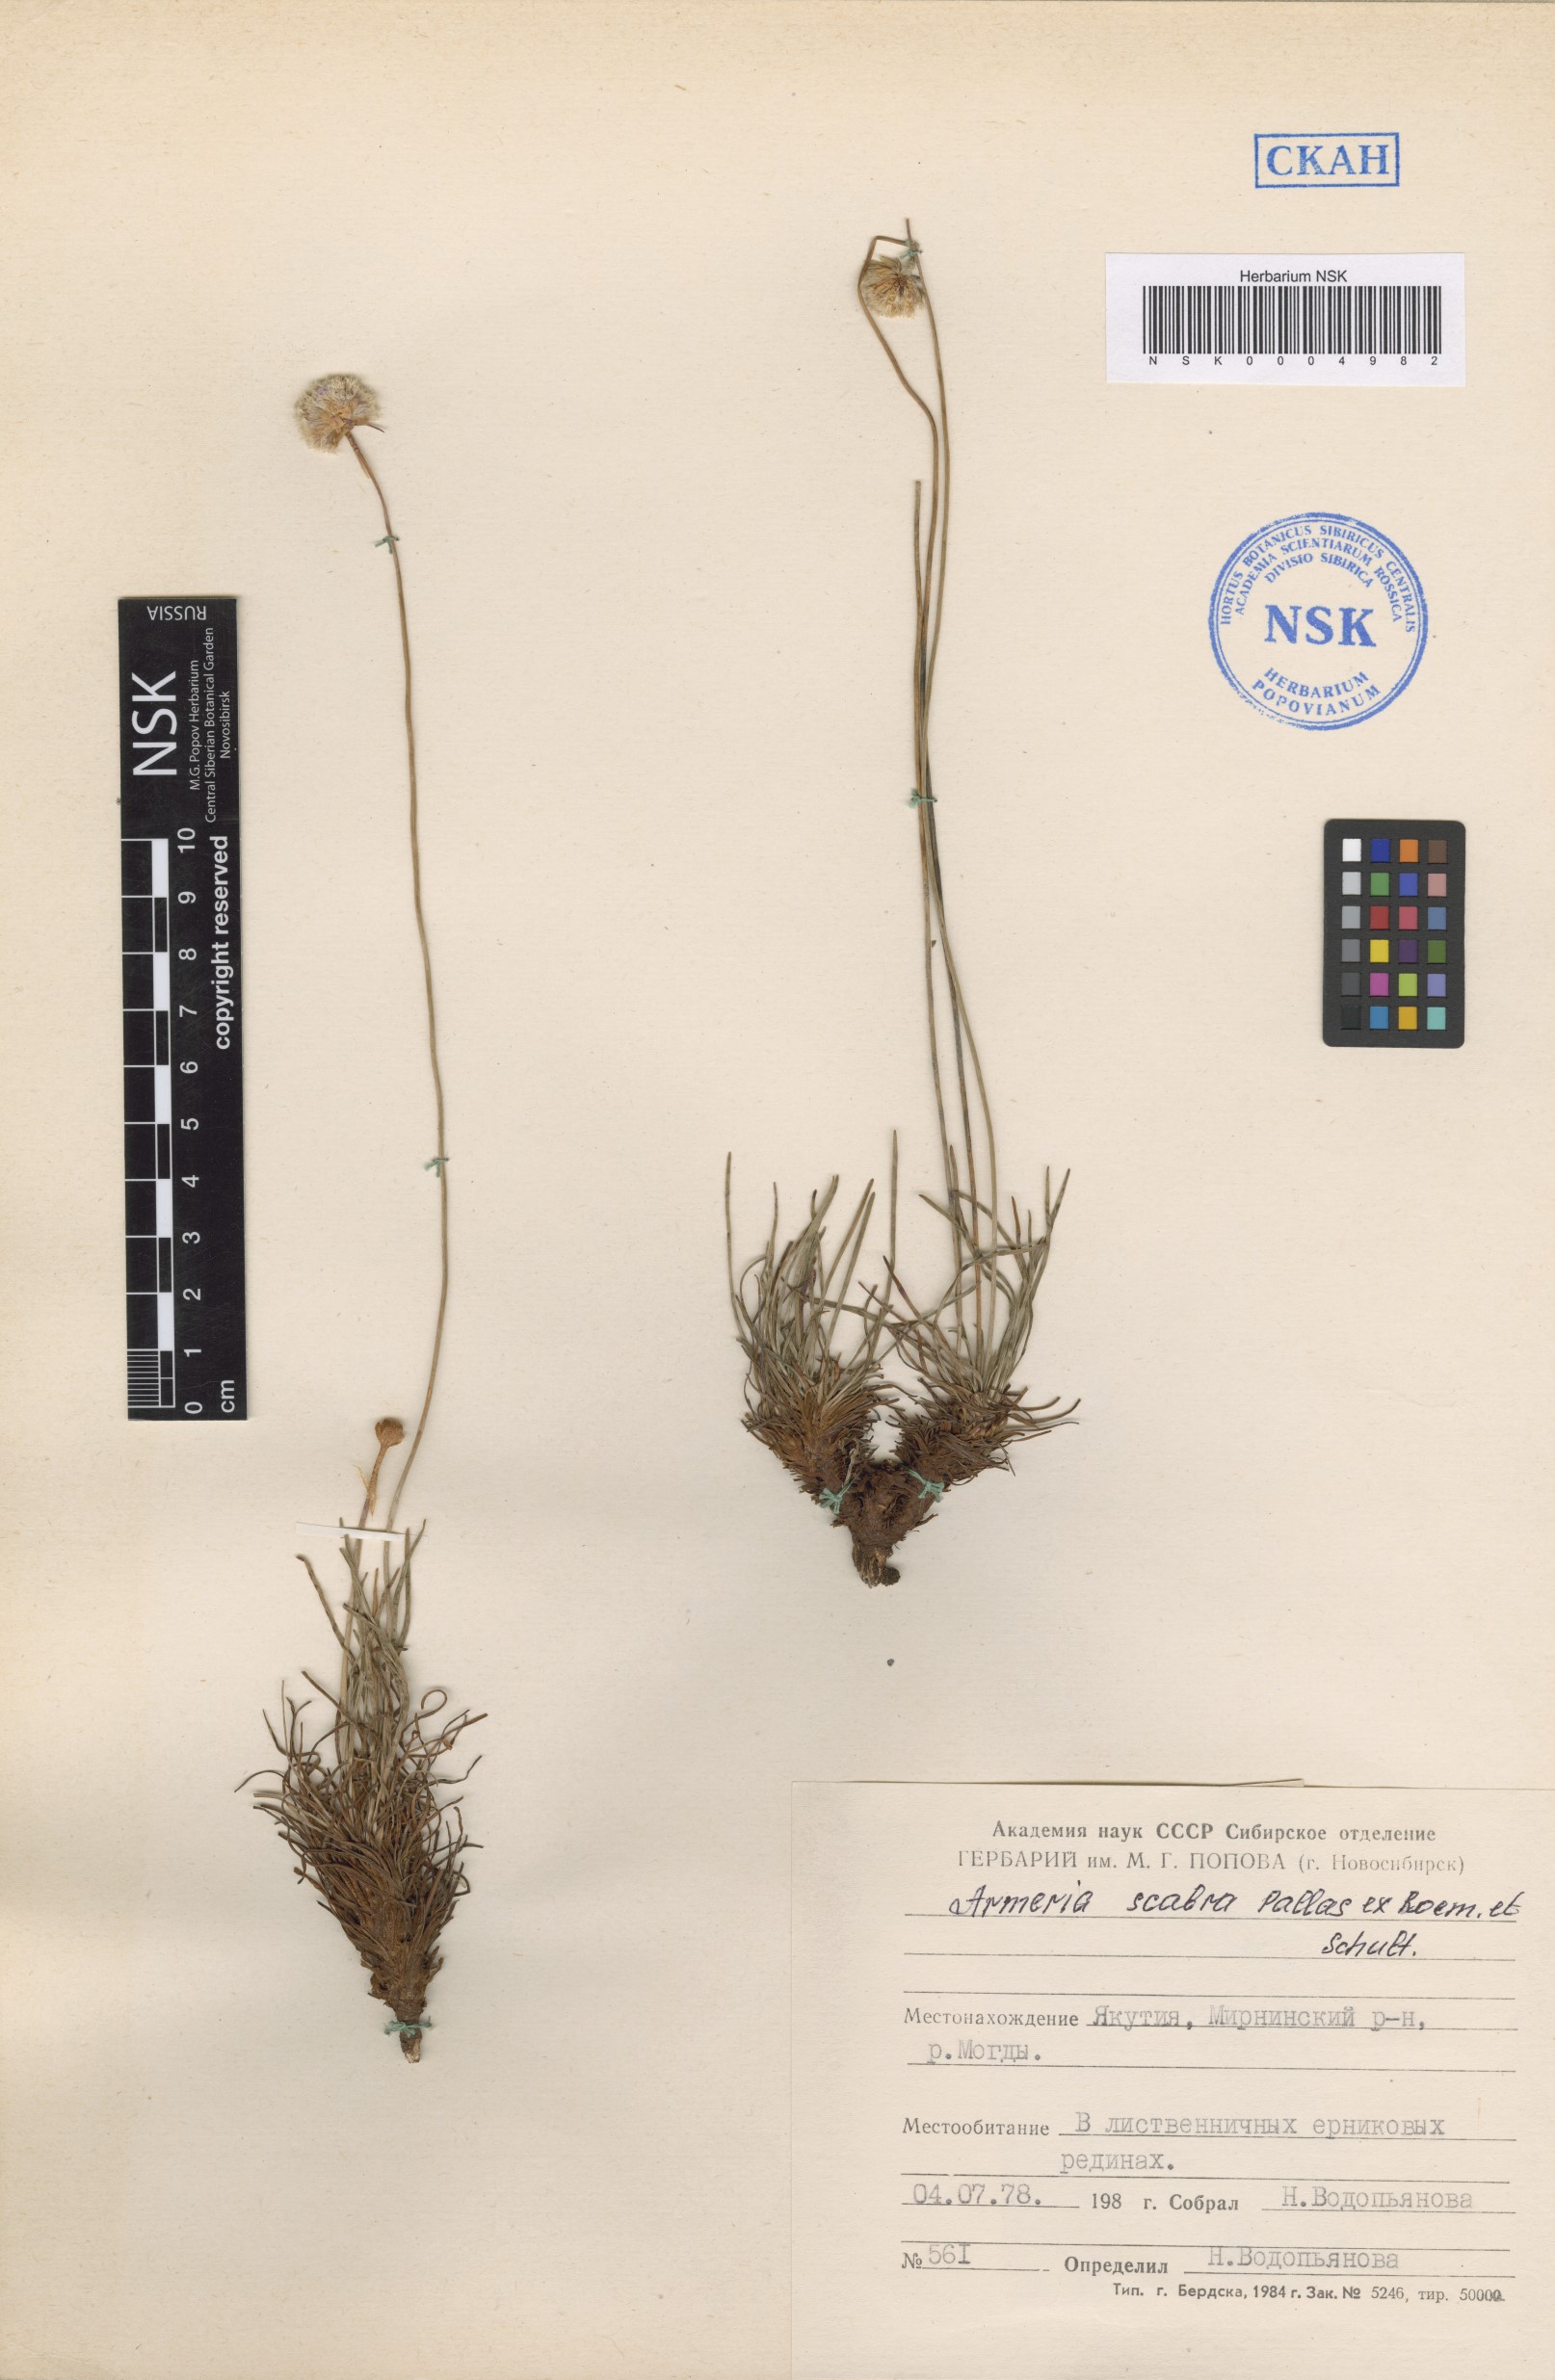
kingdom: Plantae
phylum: Tracheophyta
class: Magnoliopsida
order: Caryophyllales
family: Plumbaginaceae
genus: Armeria
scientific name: Armeria maritima
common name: Thrift
